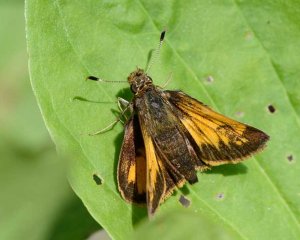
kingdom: Animalia
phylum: Arthropoda
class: Insecta
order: Lepidoptera
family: Hesperiidae
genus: Lon
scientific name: Lon hobomok
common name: Hobomok Skipper
